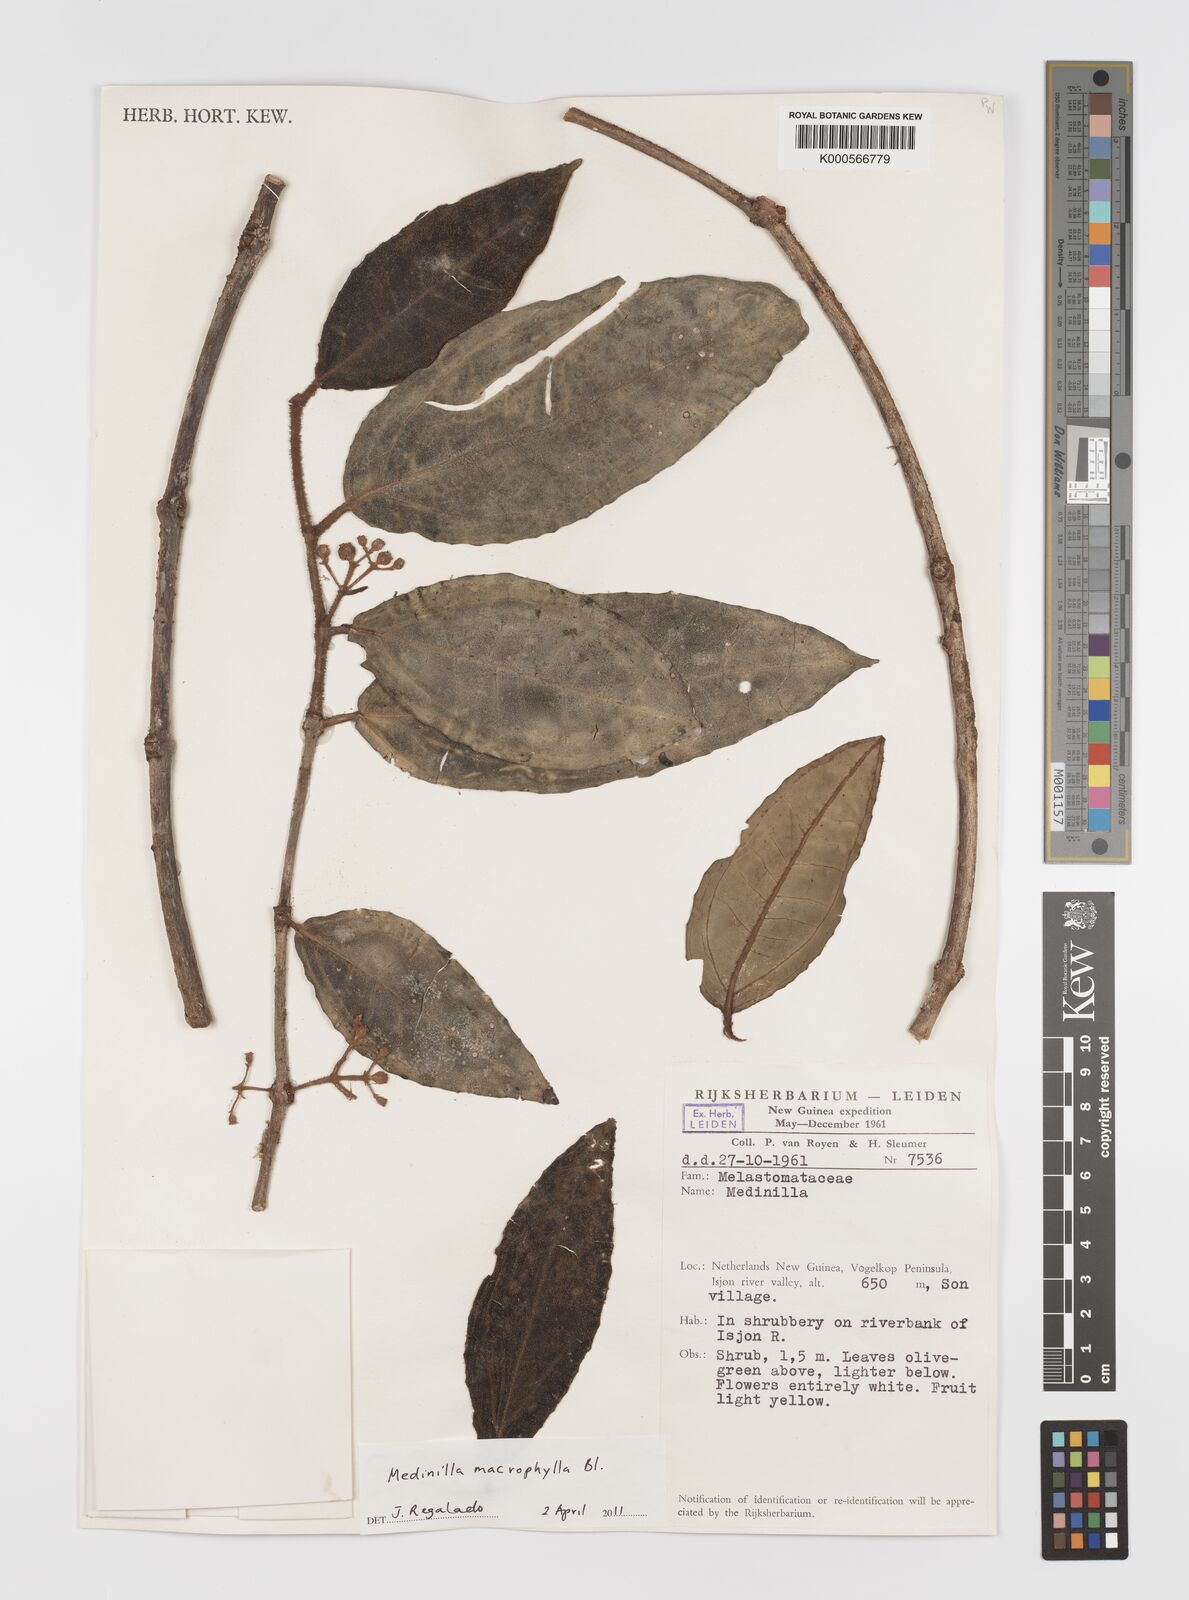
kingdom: Plantae
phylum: Tracheophyta
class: Magnoliopsida
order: Myrtales
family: Melastomataceae
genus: Medinilla
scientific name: Medinilla macrophylla
